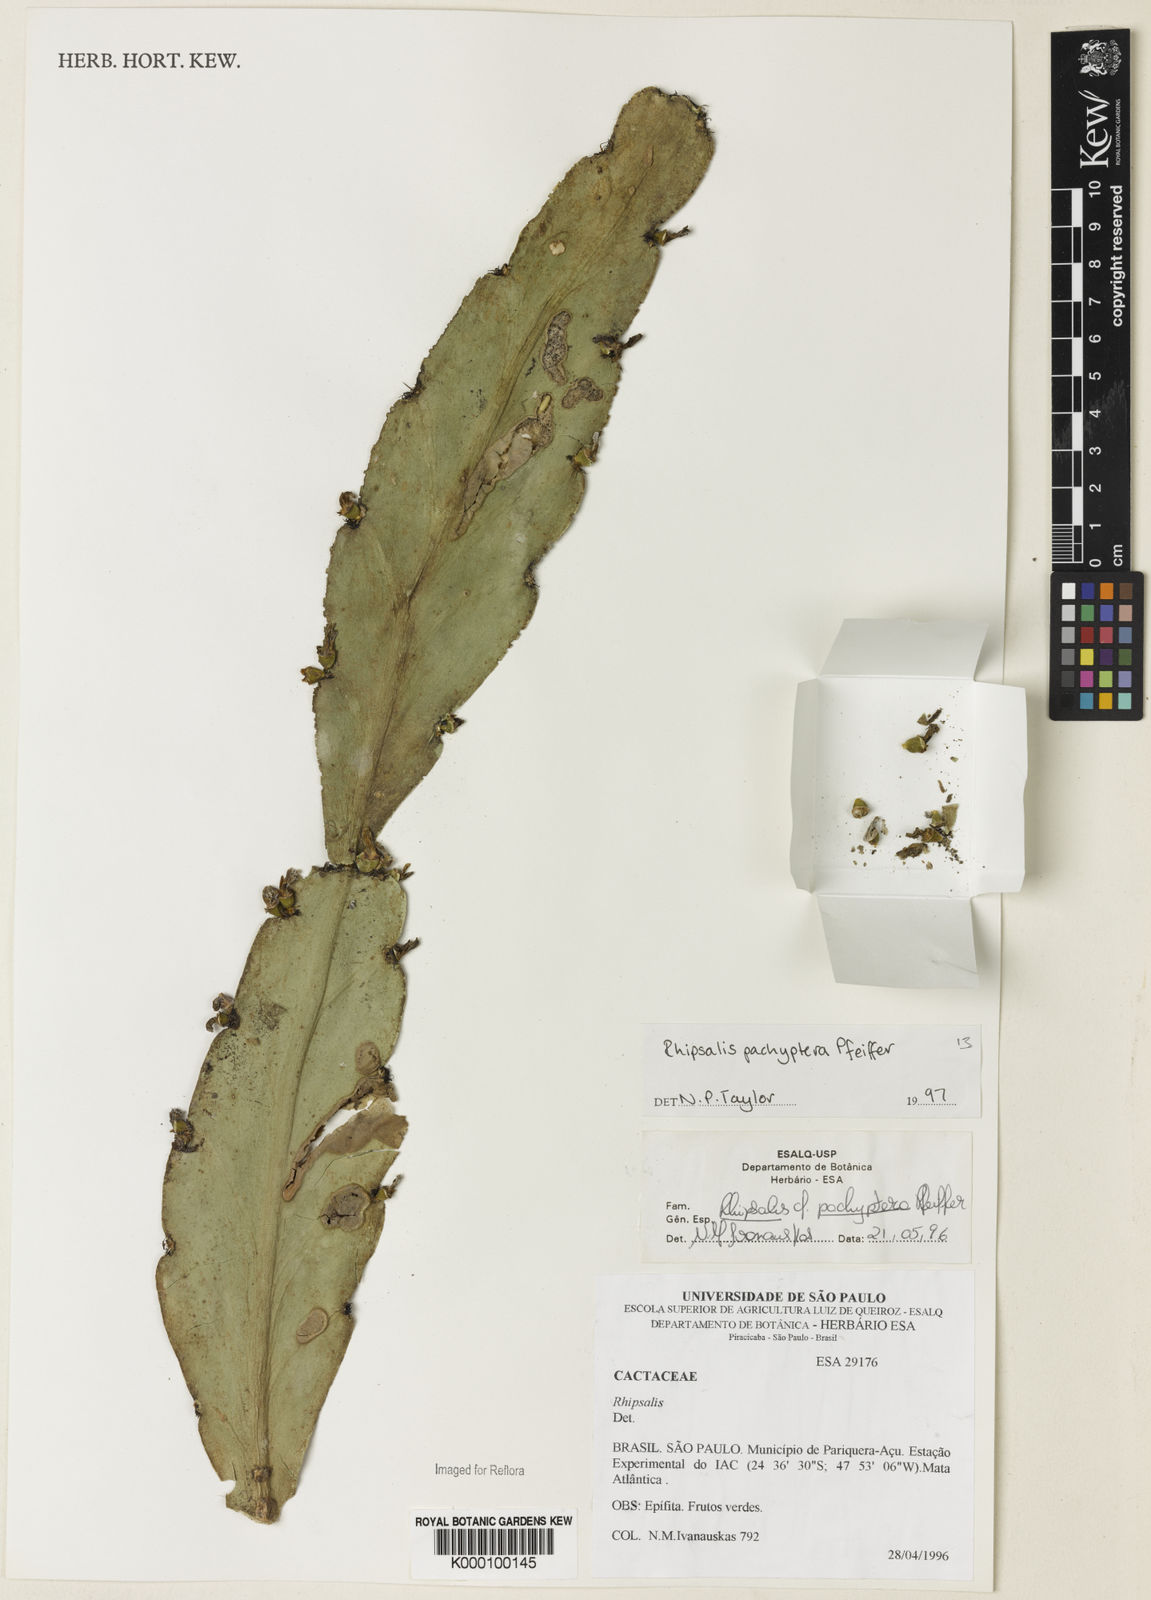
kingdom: Plantae
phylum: Tracheophyta
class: Magnoliopsida
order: Caryophyllales
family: Cactaceae
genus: Rhipsalis
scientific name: Rhipsalis pachyptera
